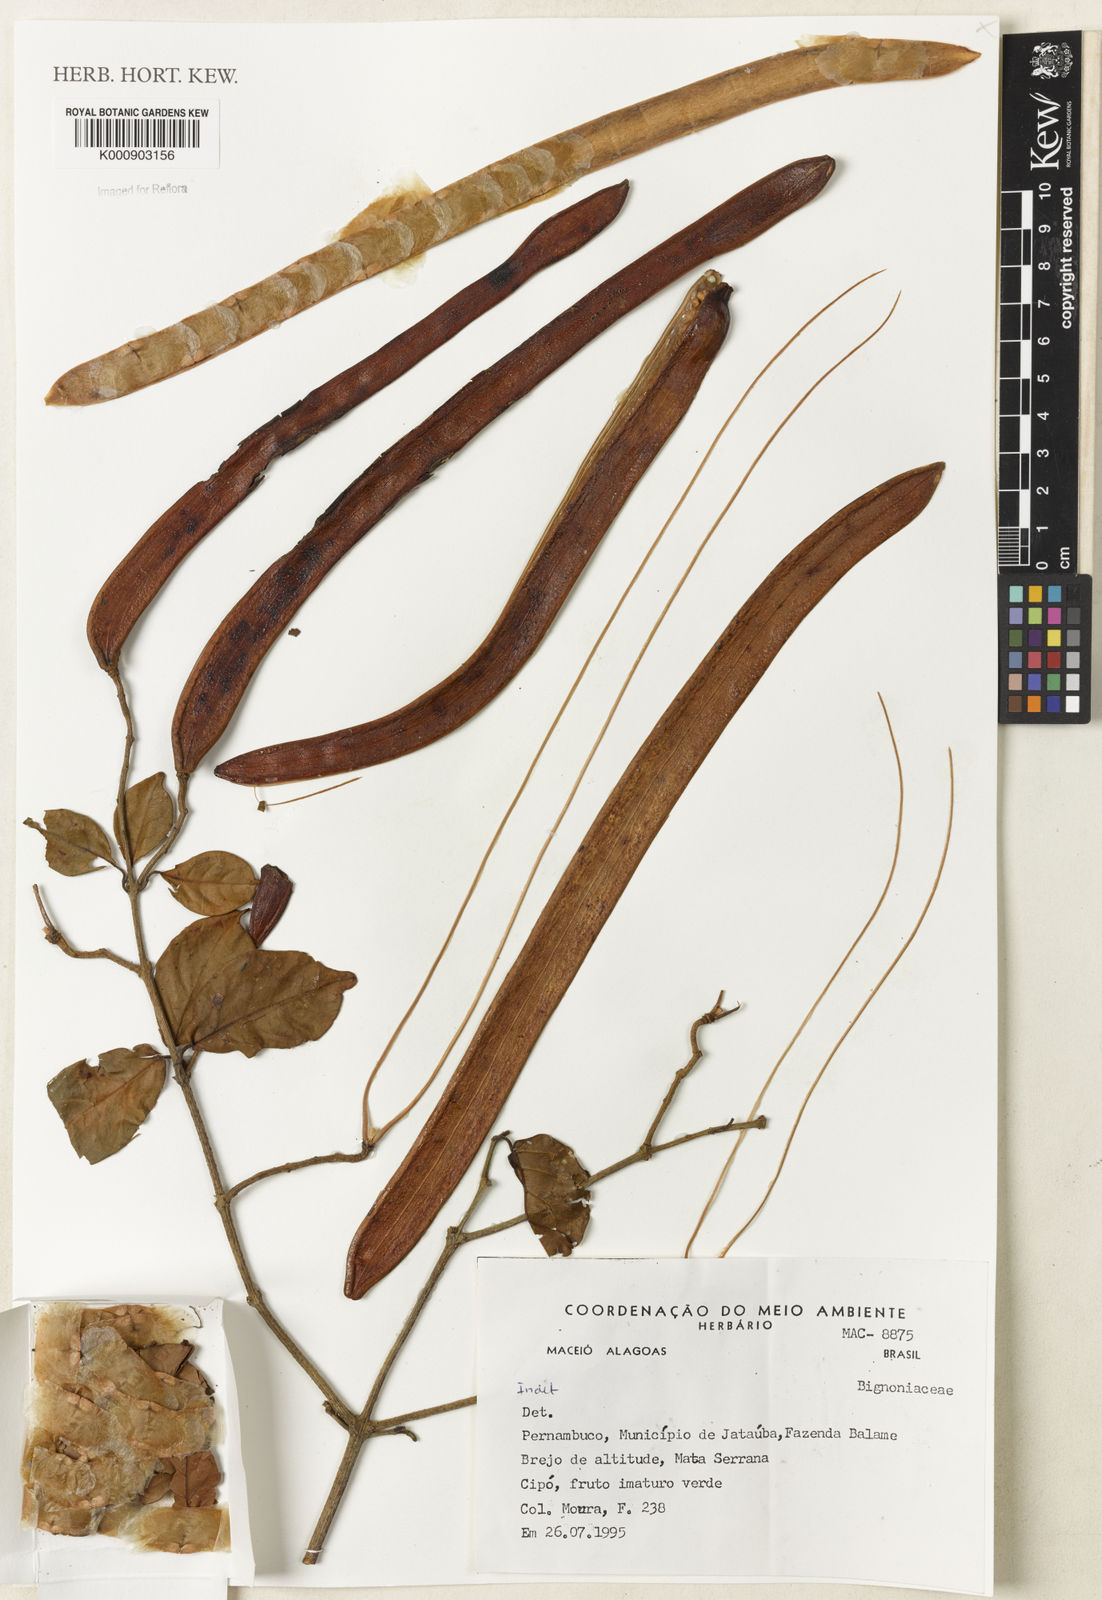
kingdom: Plantae
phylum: Tracheophyta
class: Magnoliopsida
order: Lamiales
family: Bignoniaceae
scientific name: Bignoniaceae
